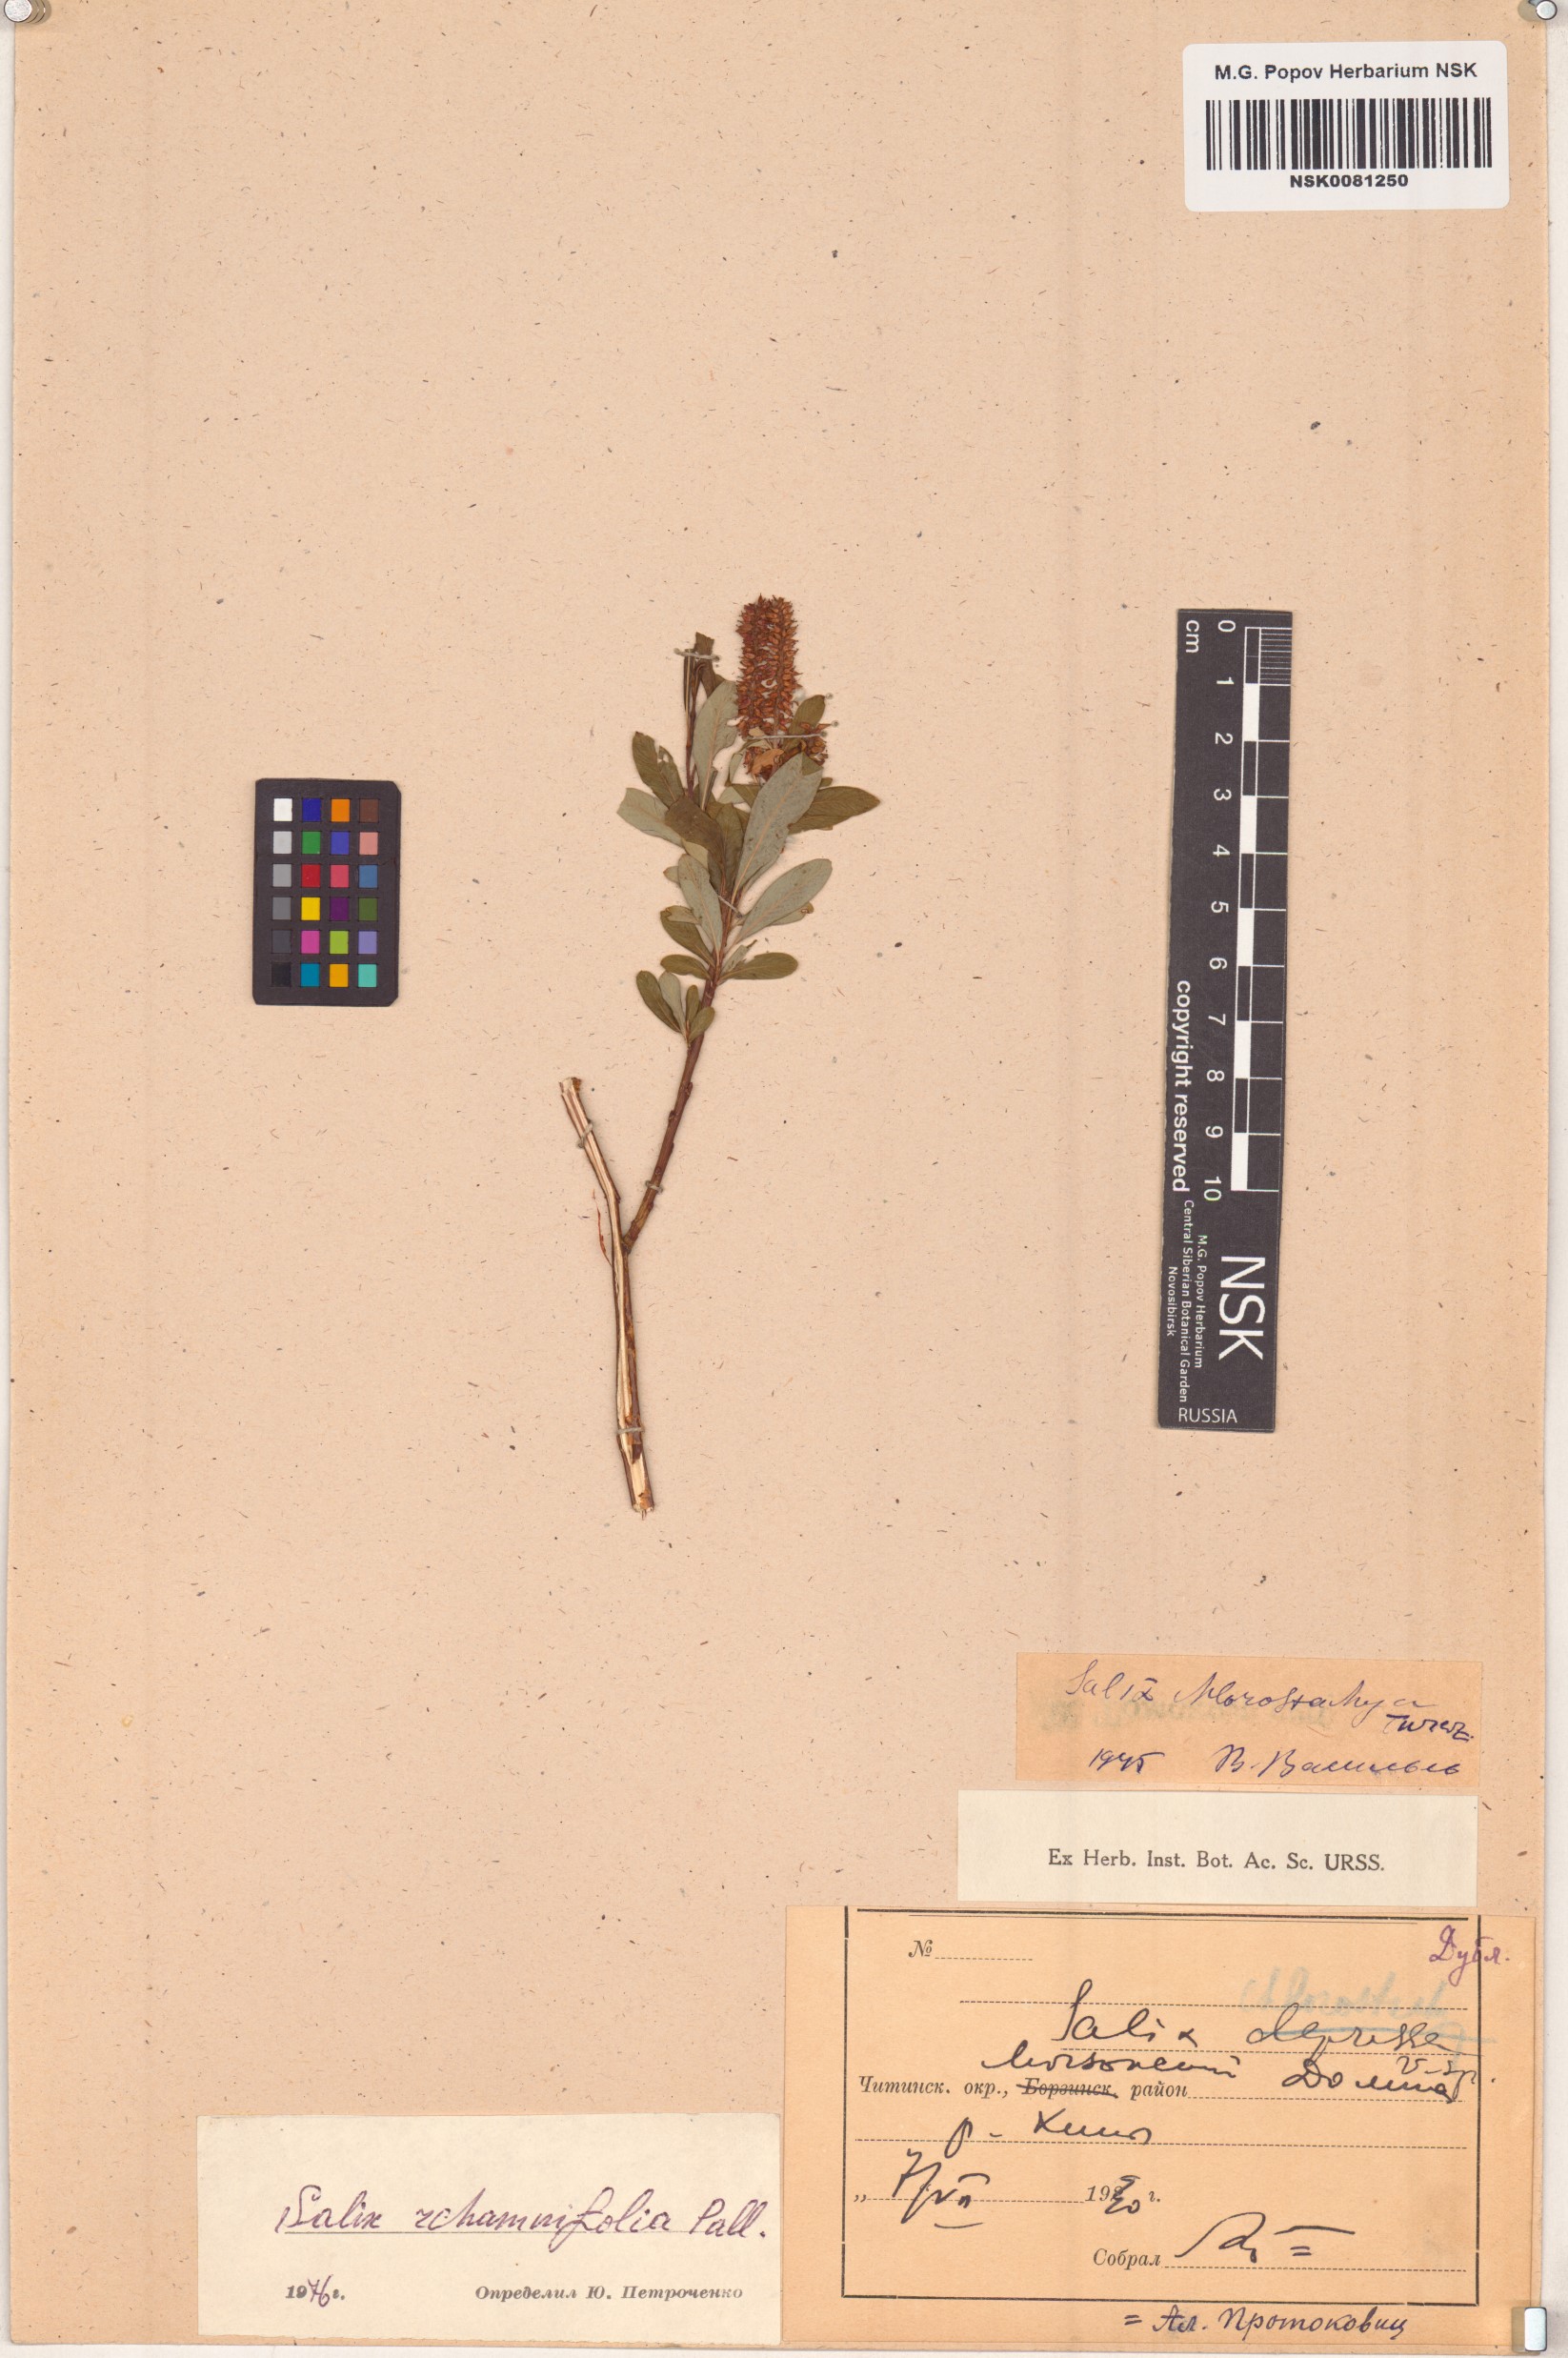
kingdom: Plantae
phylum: Tracheophyta
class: Magnoliopsida
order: Malpighiales
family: Salicaceae
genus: Salix
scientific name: Salix rhamnifolia
